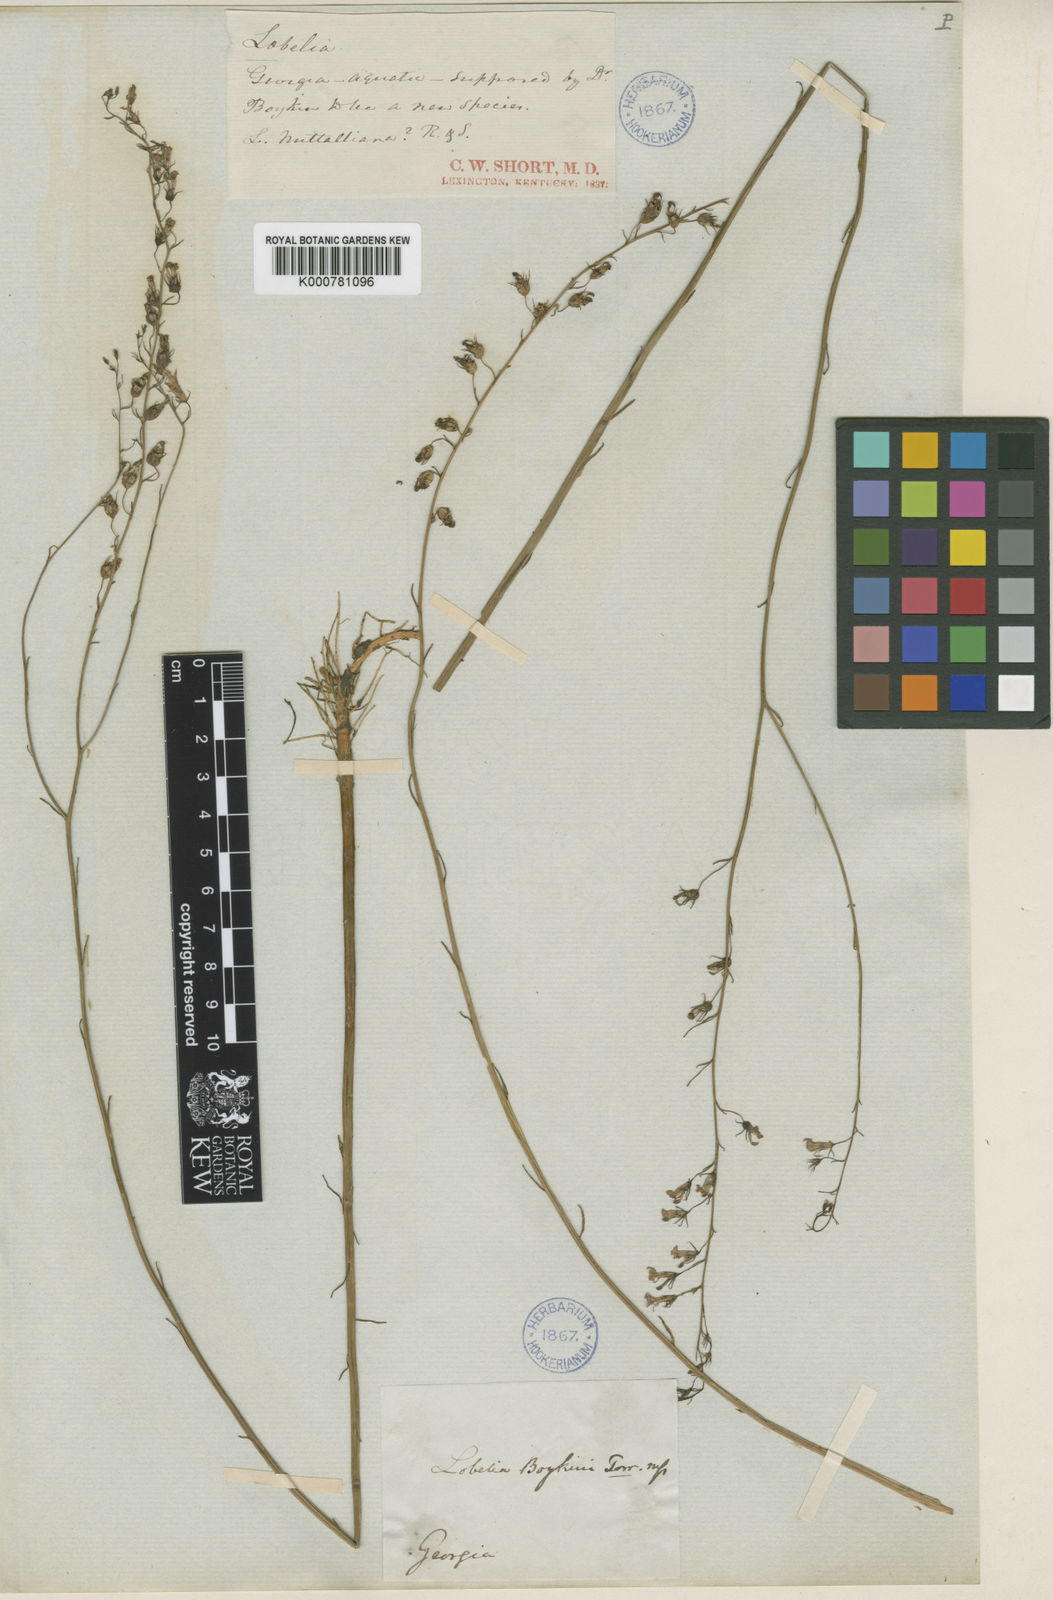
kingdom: Plantae
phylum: Tracheophyta
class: Magnoliopsida
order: Asterales
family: Campanulaceae
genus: Lobelia
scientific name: Lobelia boykinii
